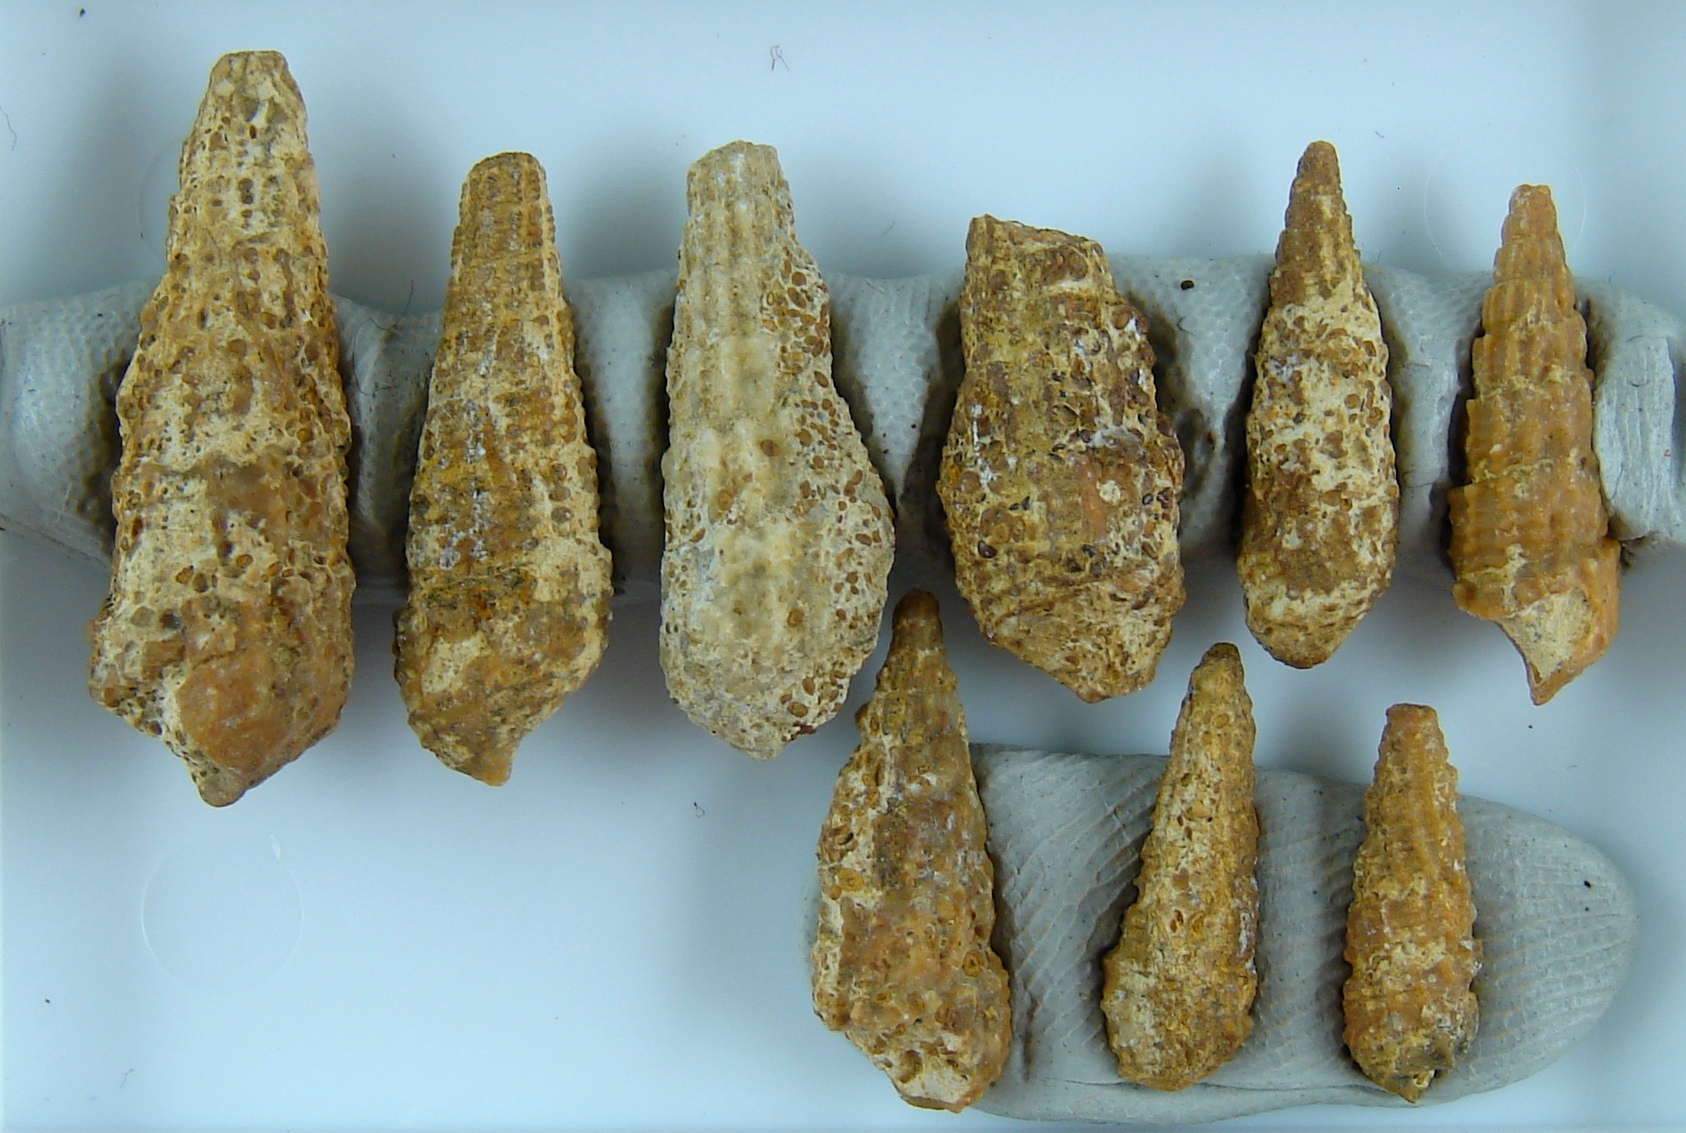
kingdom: Animalia
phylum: Mollusca
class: Gastropoda
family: Pleuroceridae
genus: Pleurocera
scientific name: Pleurocera canaliculata
